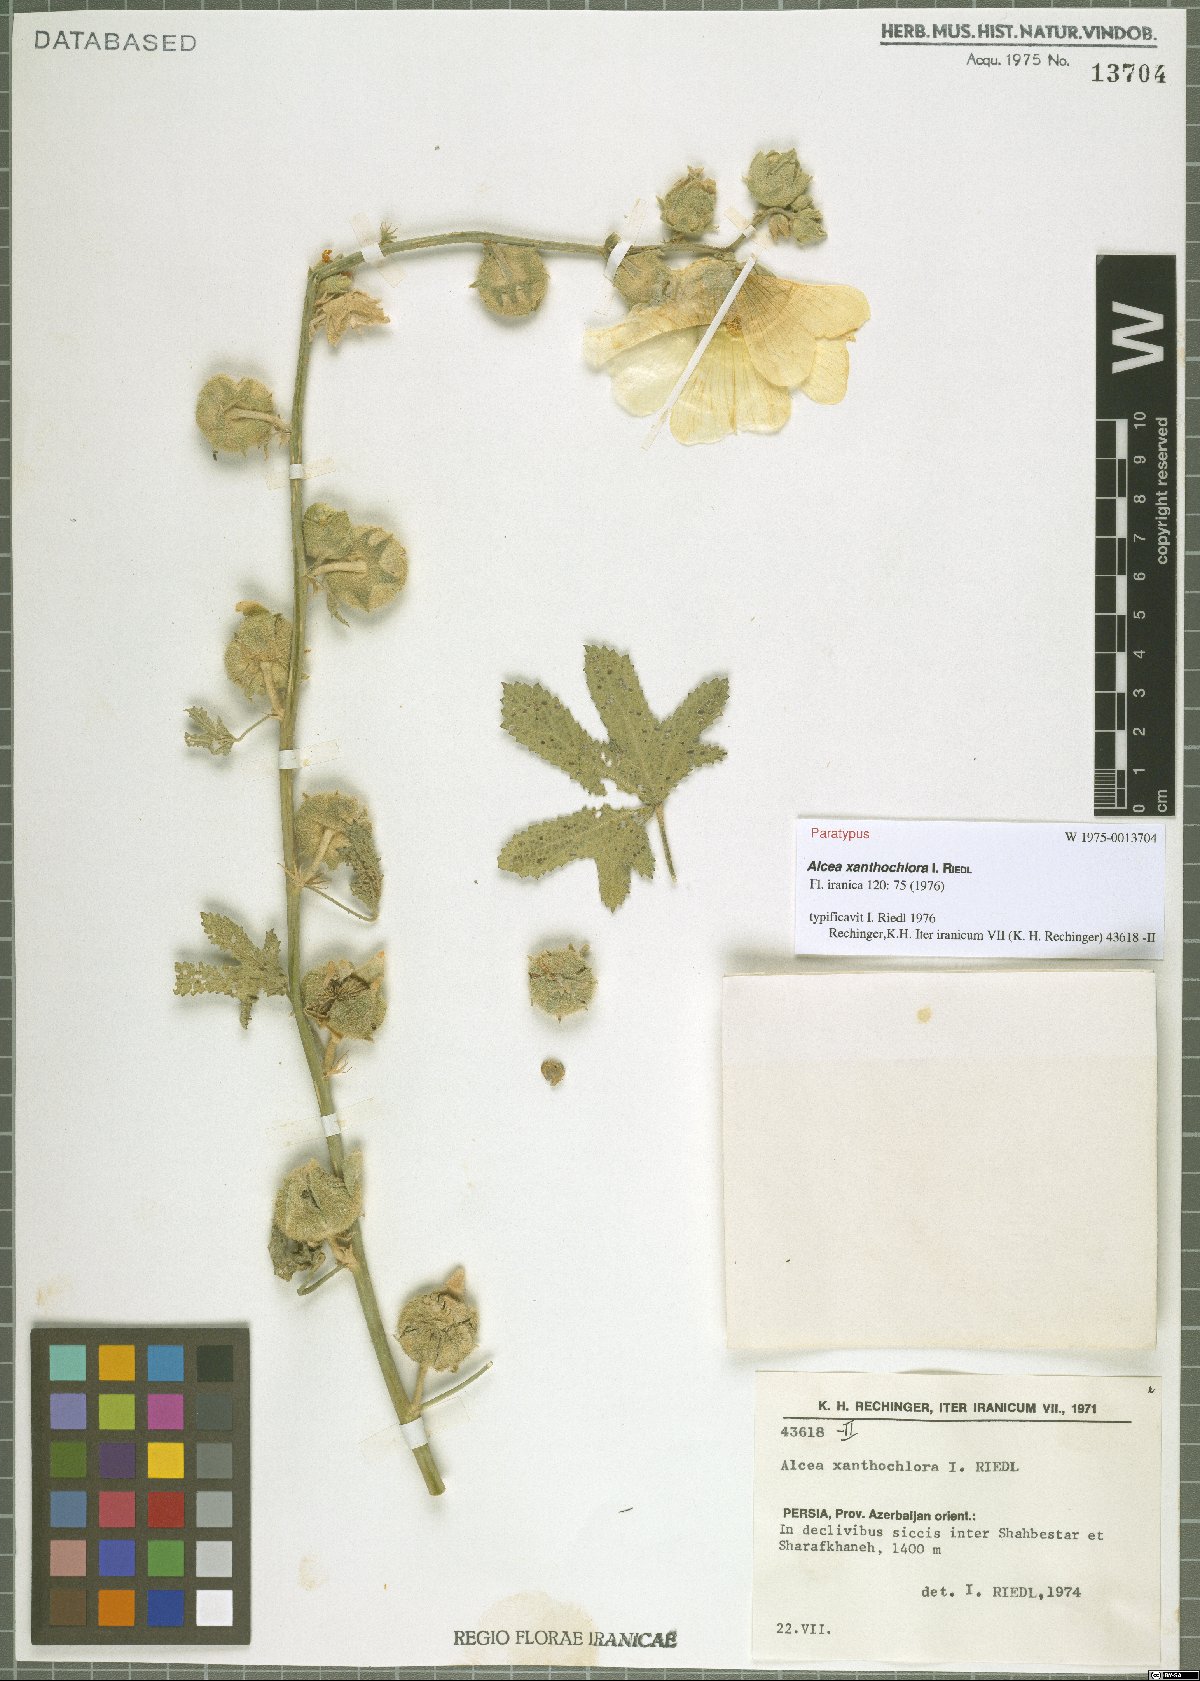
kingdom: Plantae
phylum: Tracheophyta
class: Magnoliopsida
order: Malvales
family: Malvaceae
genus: Alcea
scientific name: Alcea xanthochlora
